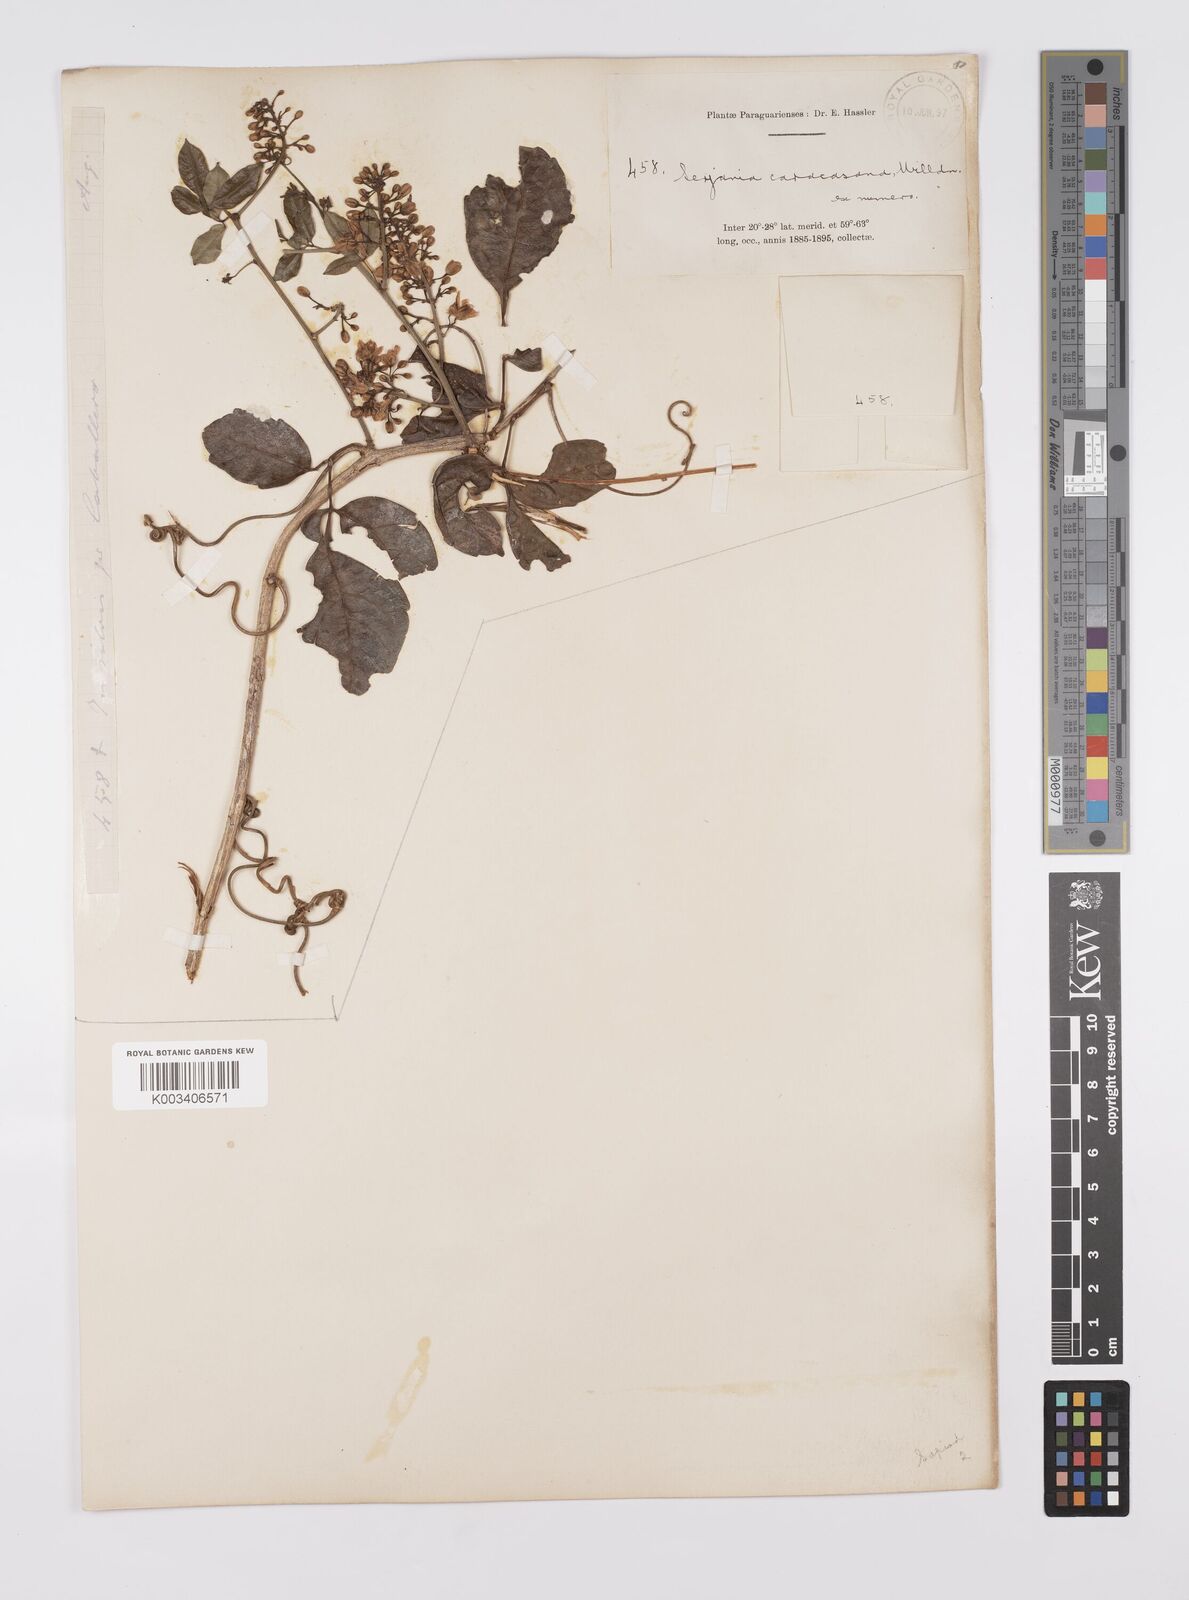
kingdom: Plantae
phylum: Tracheophyta
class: Magnoliopsida
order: Sapindales
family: Sapindaceae
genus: Serjania
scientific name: Serjania caracasana
